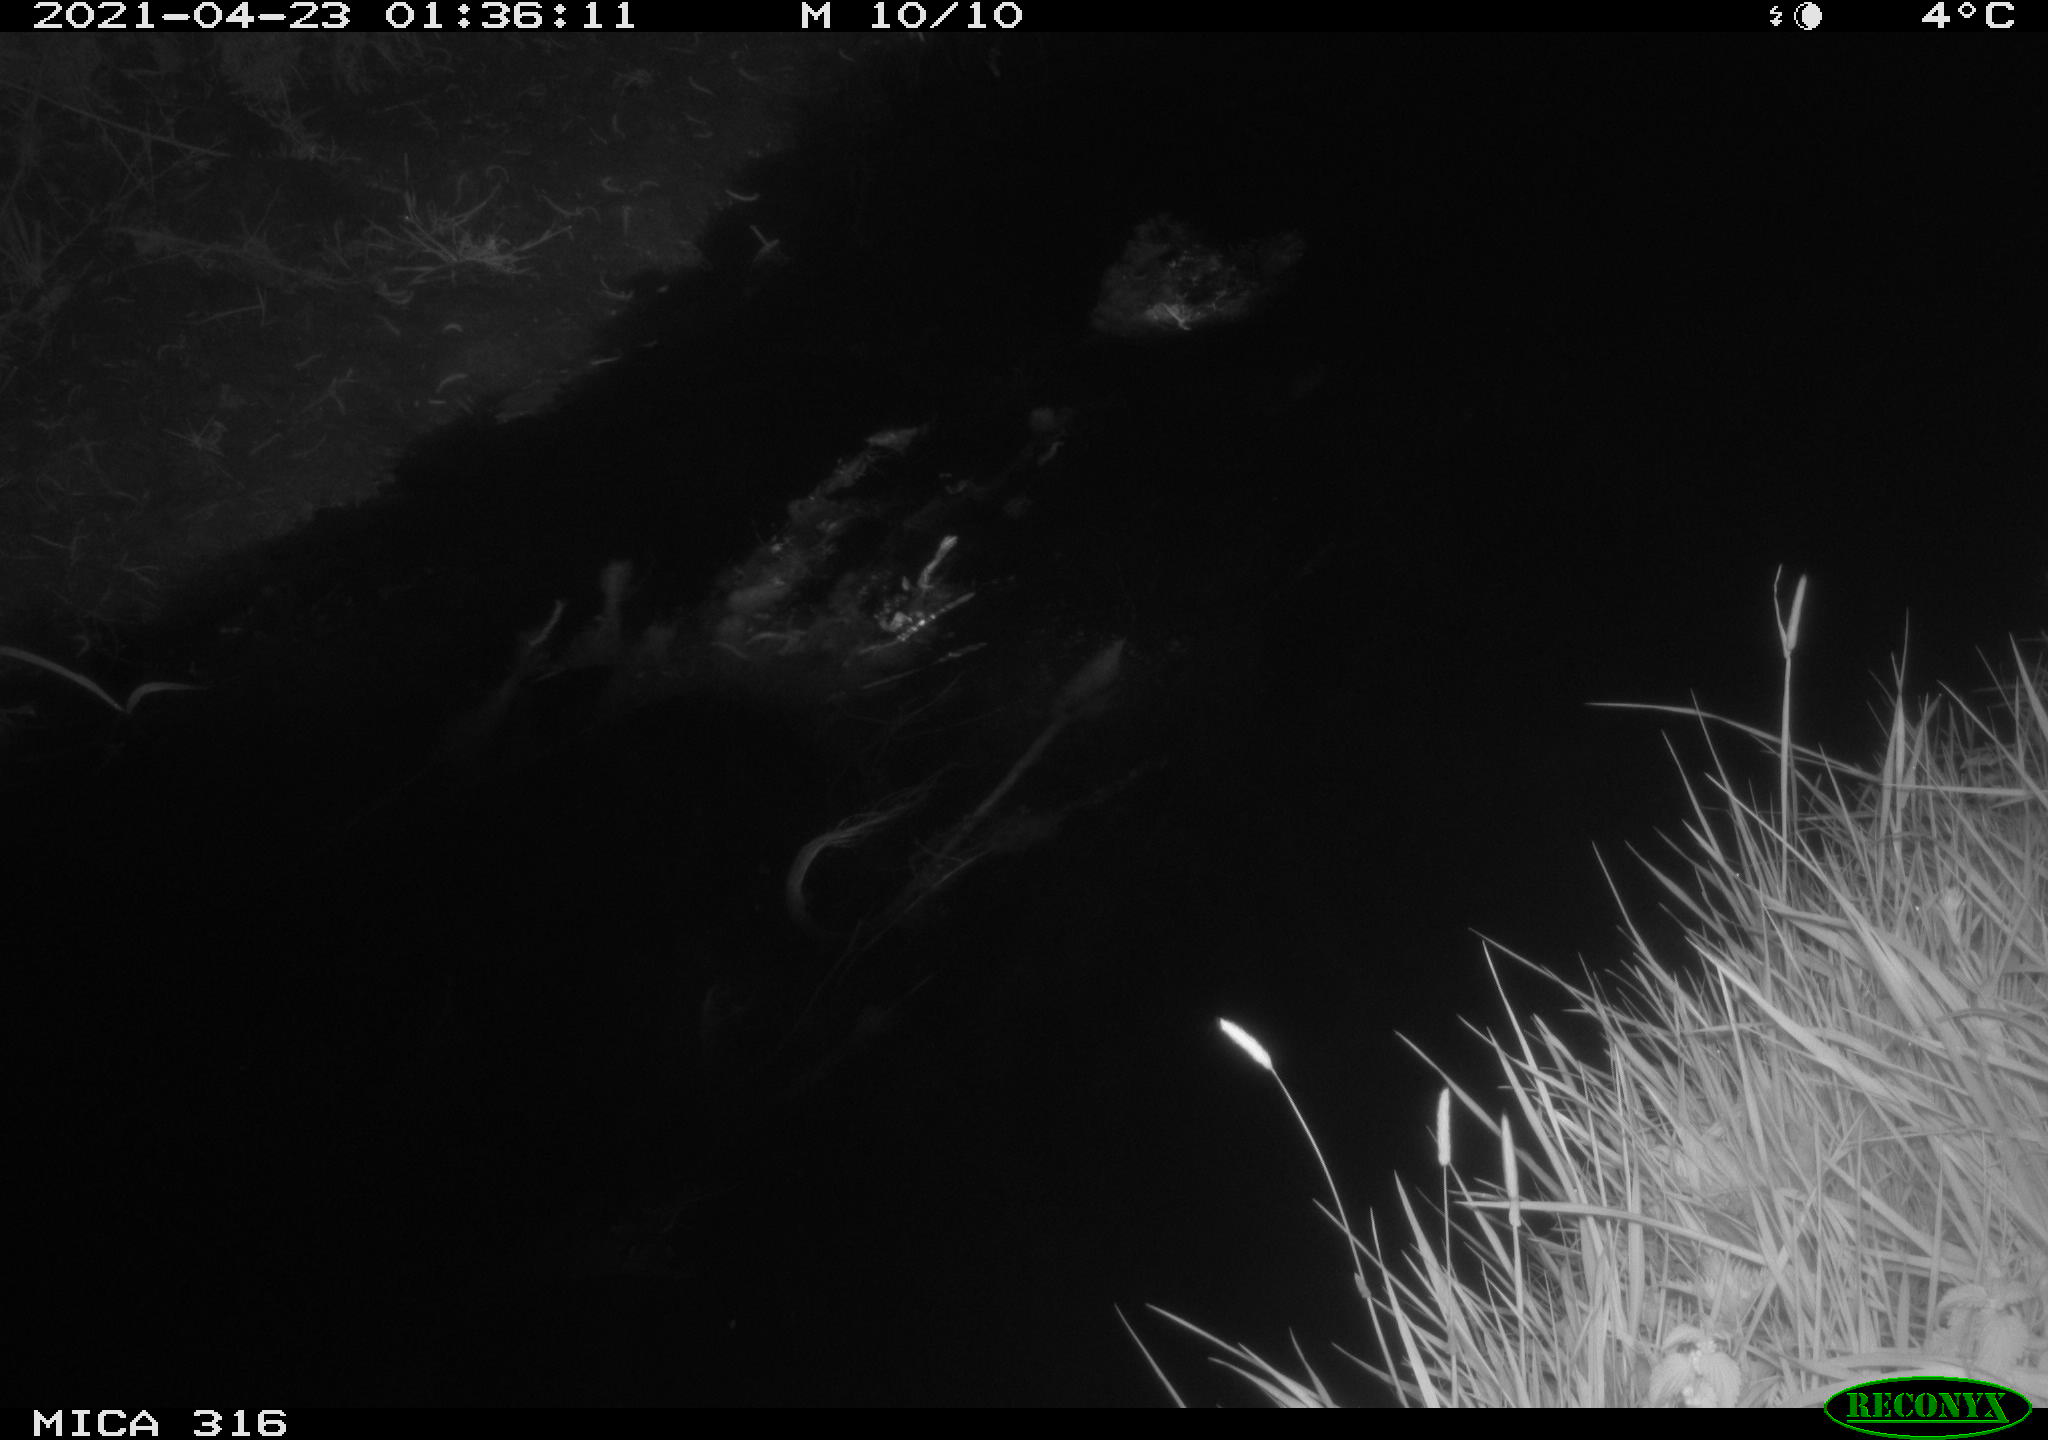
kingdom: Animalia
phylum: Chordata
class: Aves
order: Anseriformes
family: Anatidae
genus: Anas
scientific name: Anas platyrhynchos
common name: Mallard
